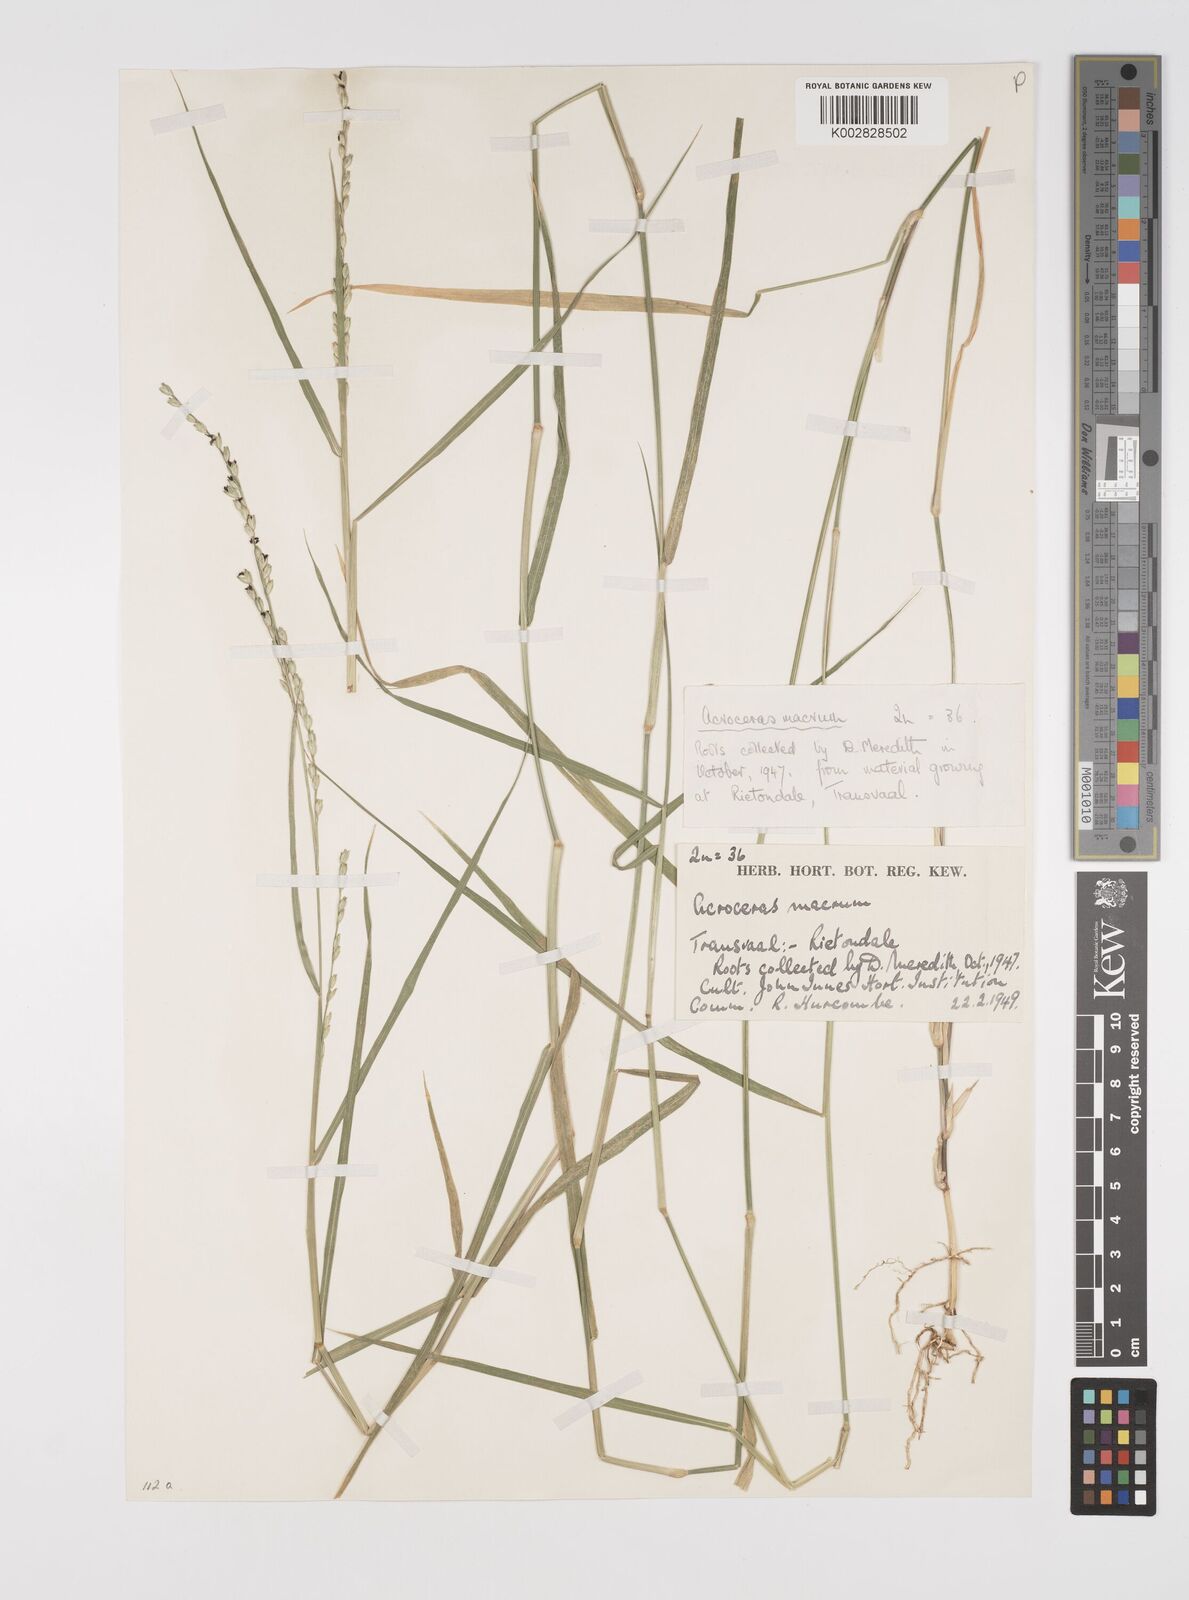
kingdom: Plantae
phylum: Tracheophyta
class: Liliopsida
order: Poales
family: Poaceae
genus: Acroceras
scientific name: Acroceras macrum
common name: Nyl grass
